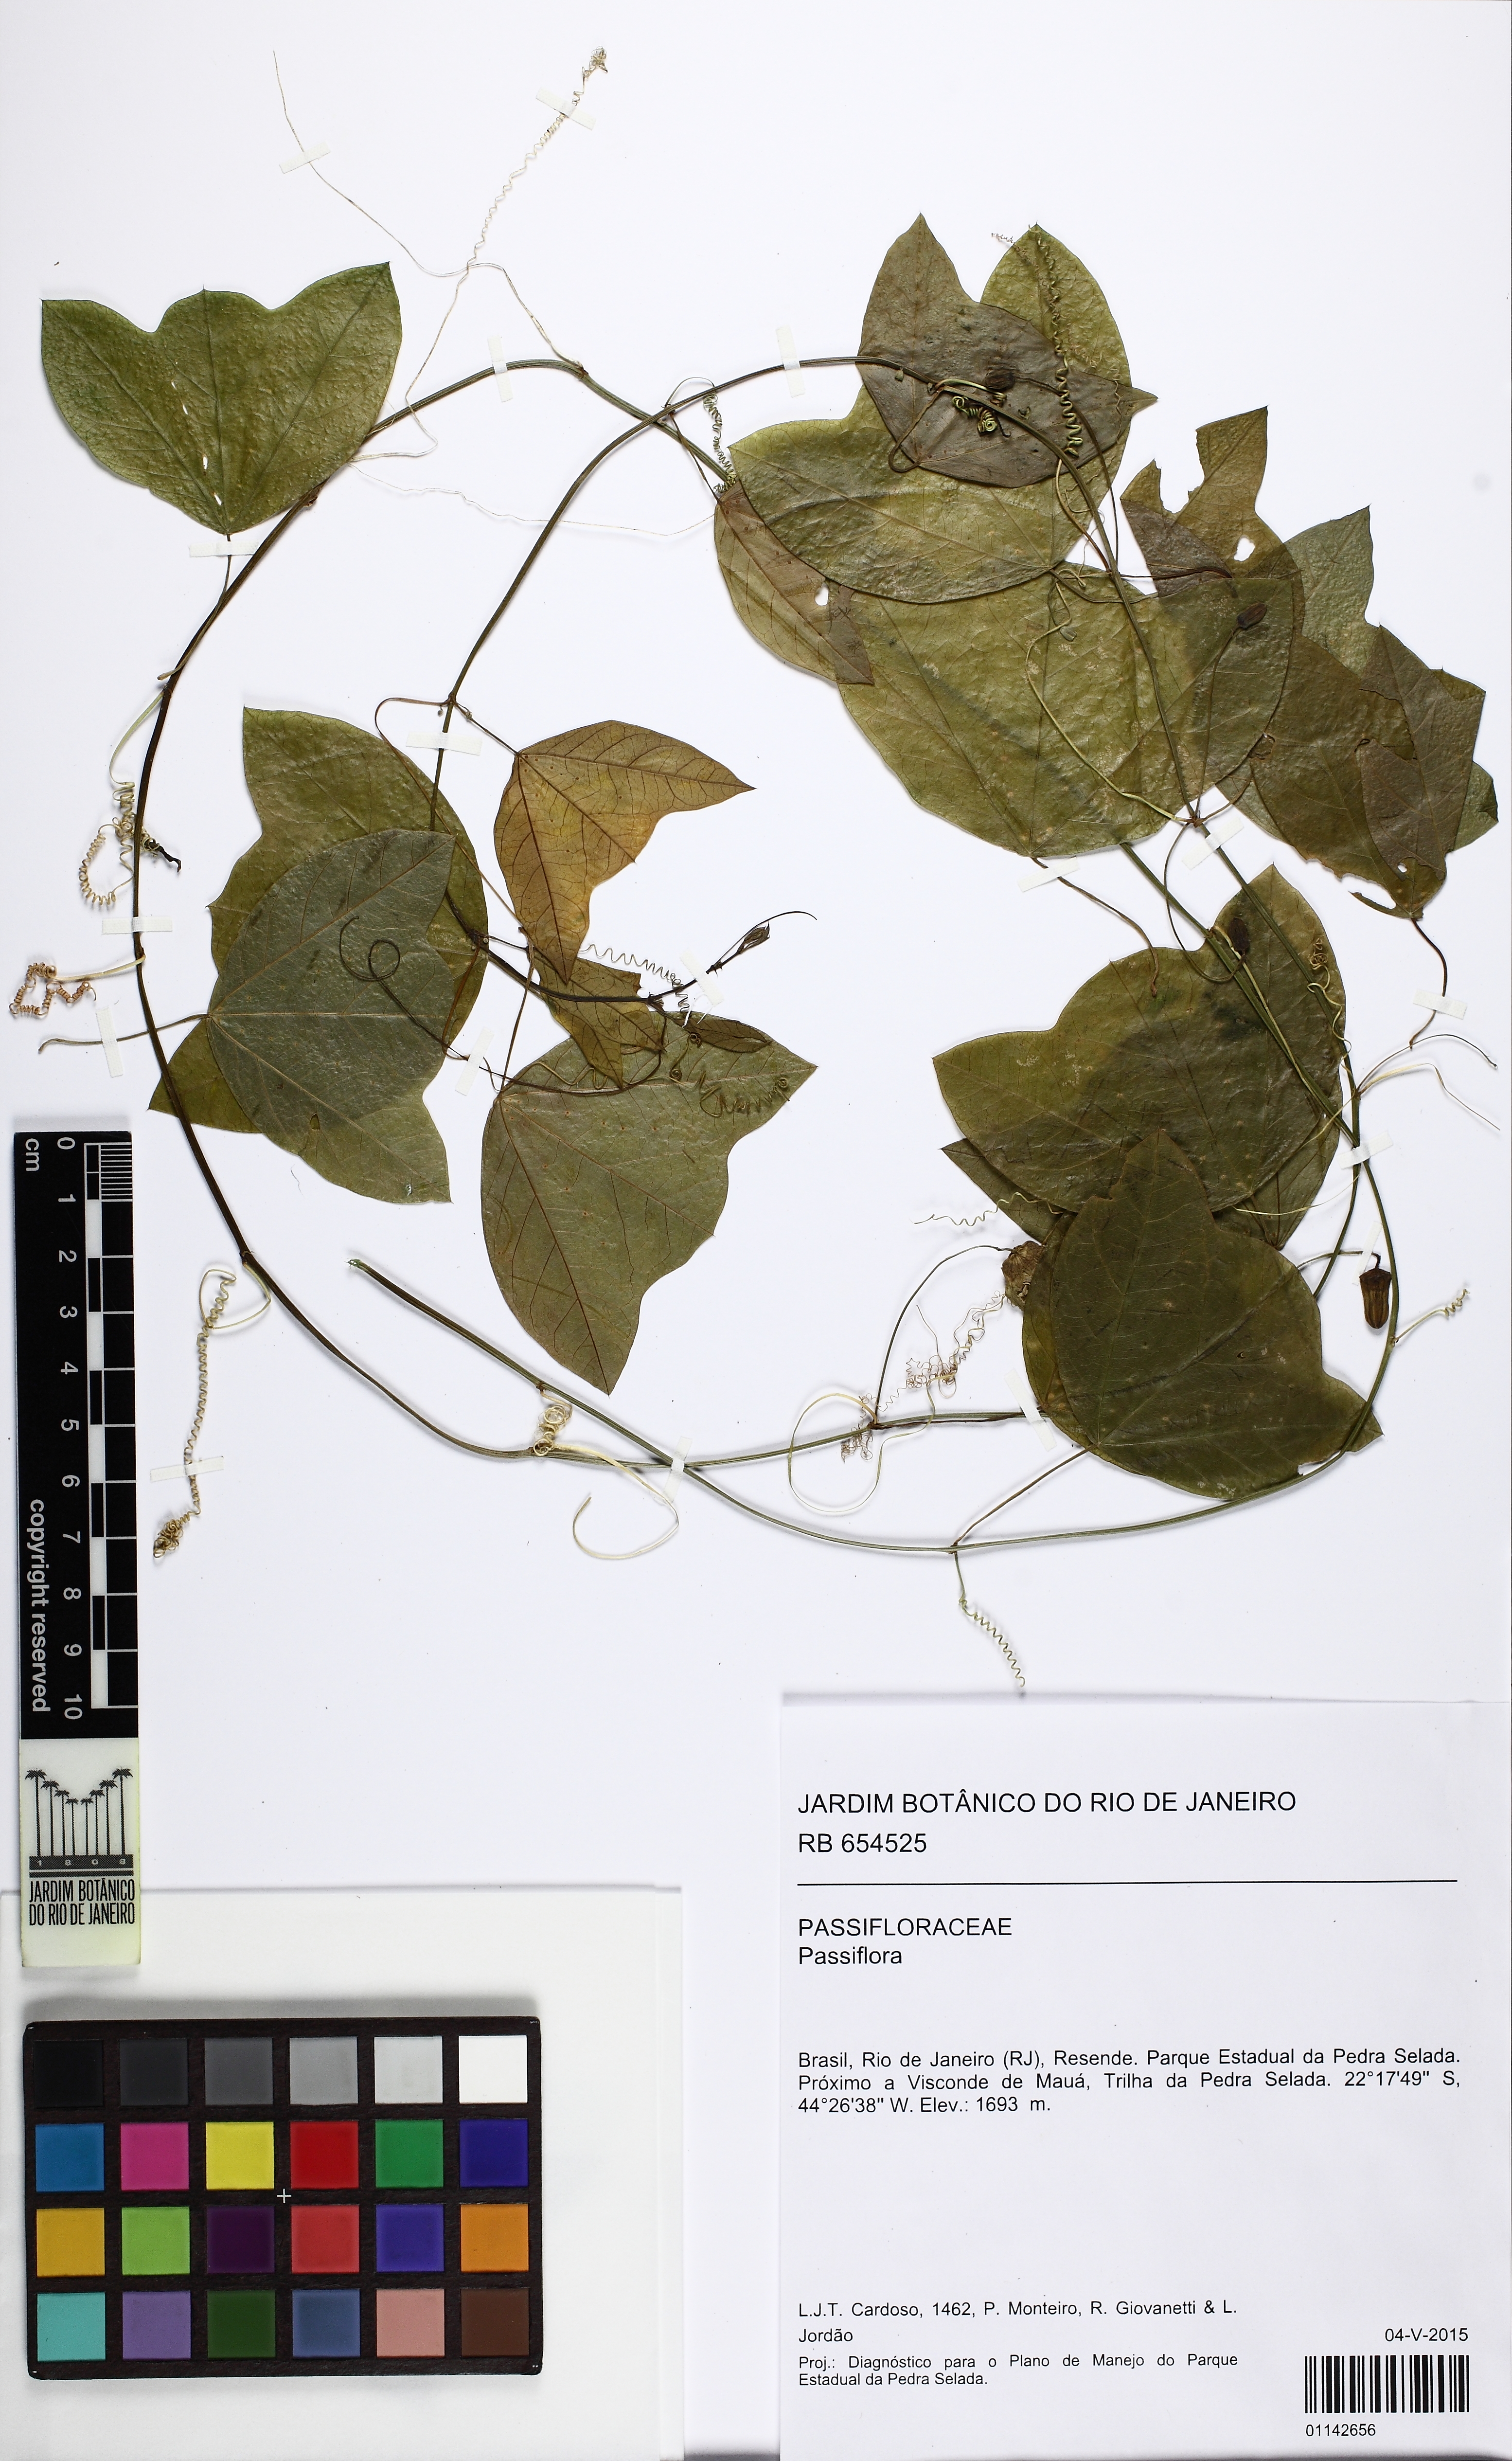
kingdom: Plantae
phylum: Tracheophyta
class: Magnoliopsida
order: Malpighiales
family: Passifloraceae
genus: Passiflora
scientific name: Passiflora
